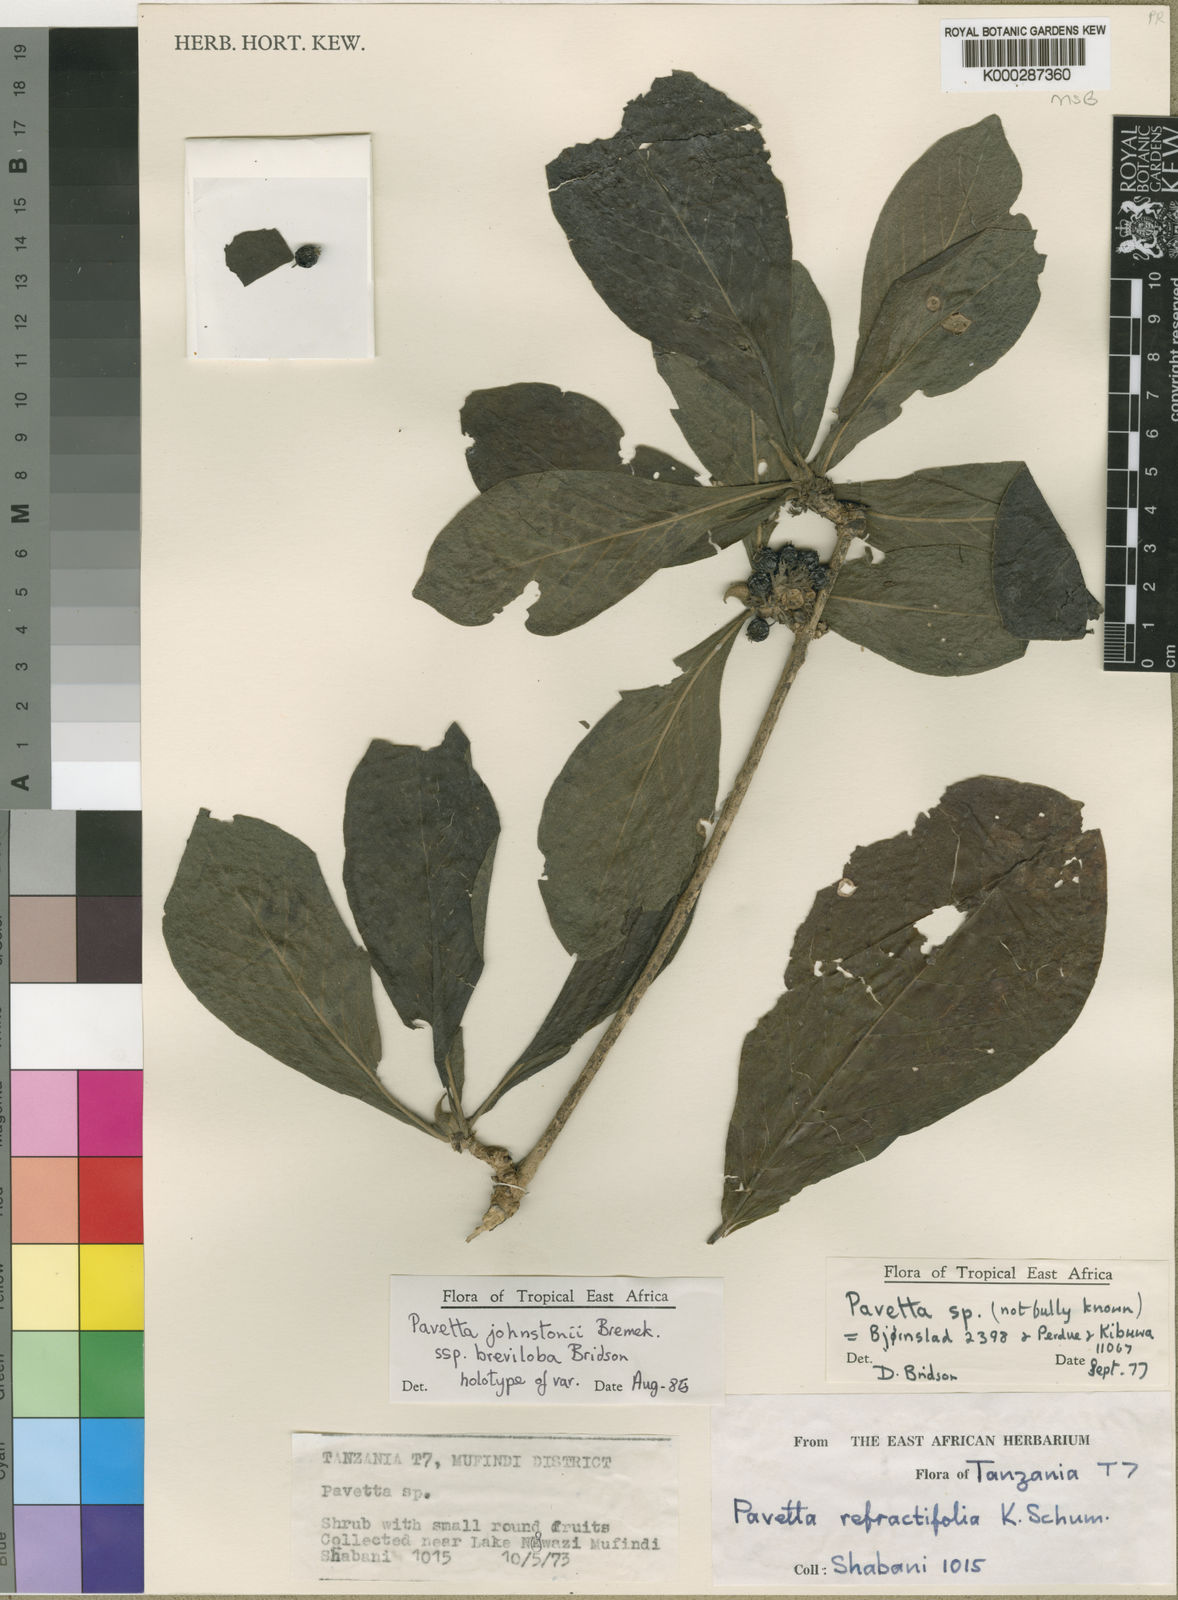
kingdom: Plantae
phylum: Tracheophyta
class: Magnoliopsida
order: Gentianales
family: Rubiaceae
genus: Pavetta
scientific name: Pavetta johnstonii
